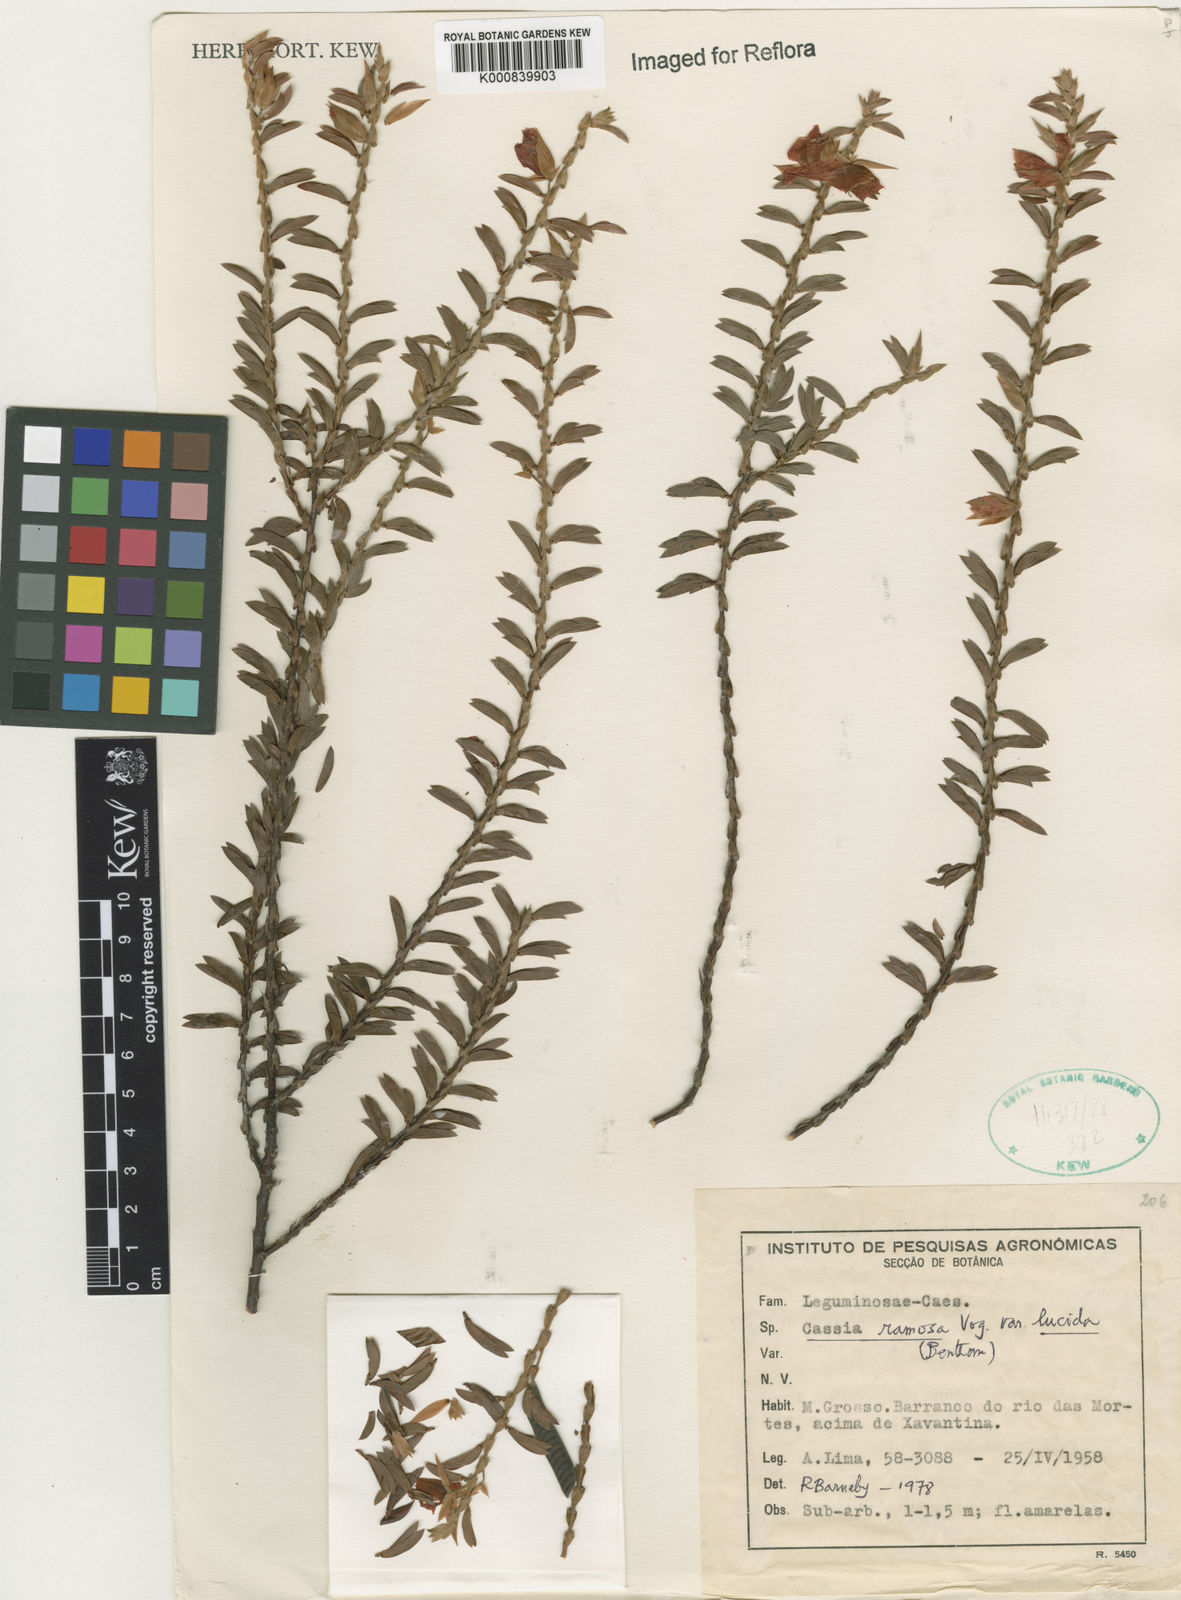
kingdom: Plantae
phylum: Tracheophyta
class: Magnoliopsida
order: Fabales
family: Fabaceae
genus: Chamaecrista
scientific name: Chamaecrista ramosa
